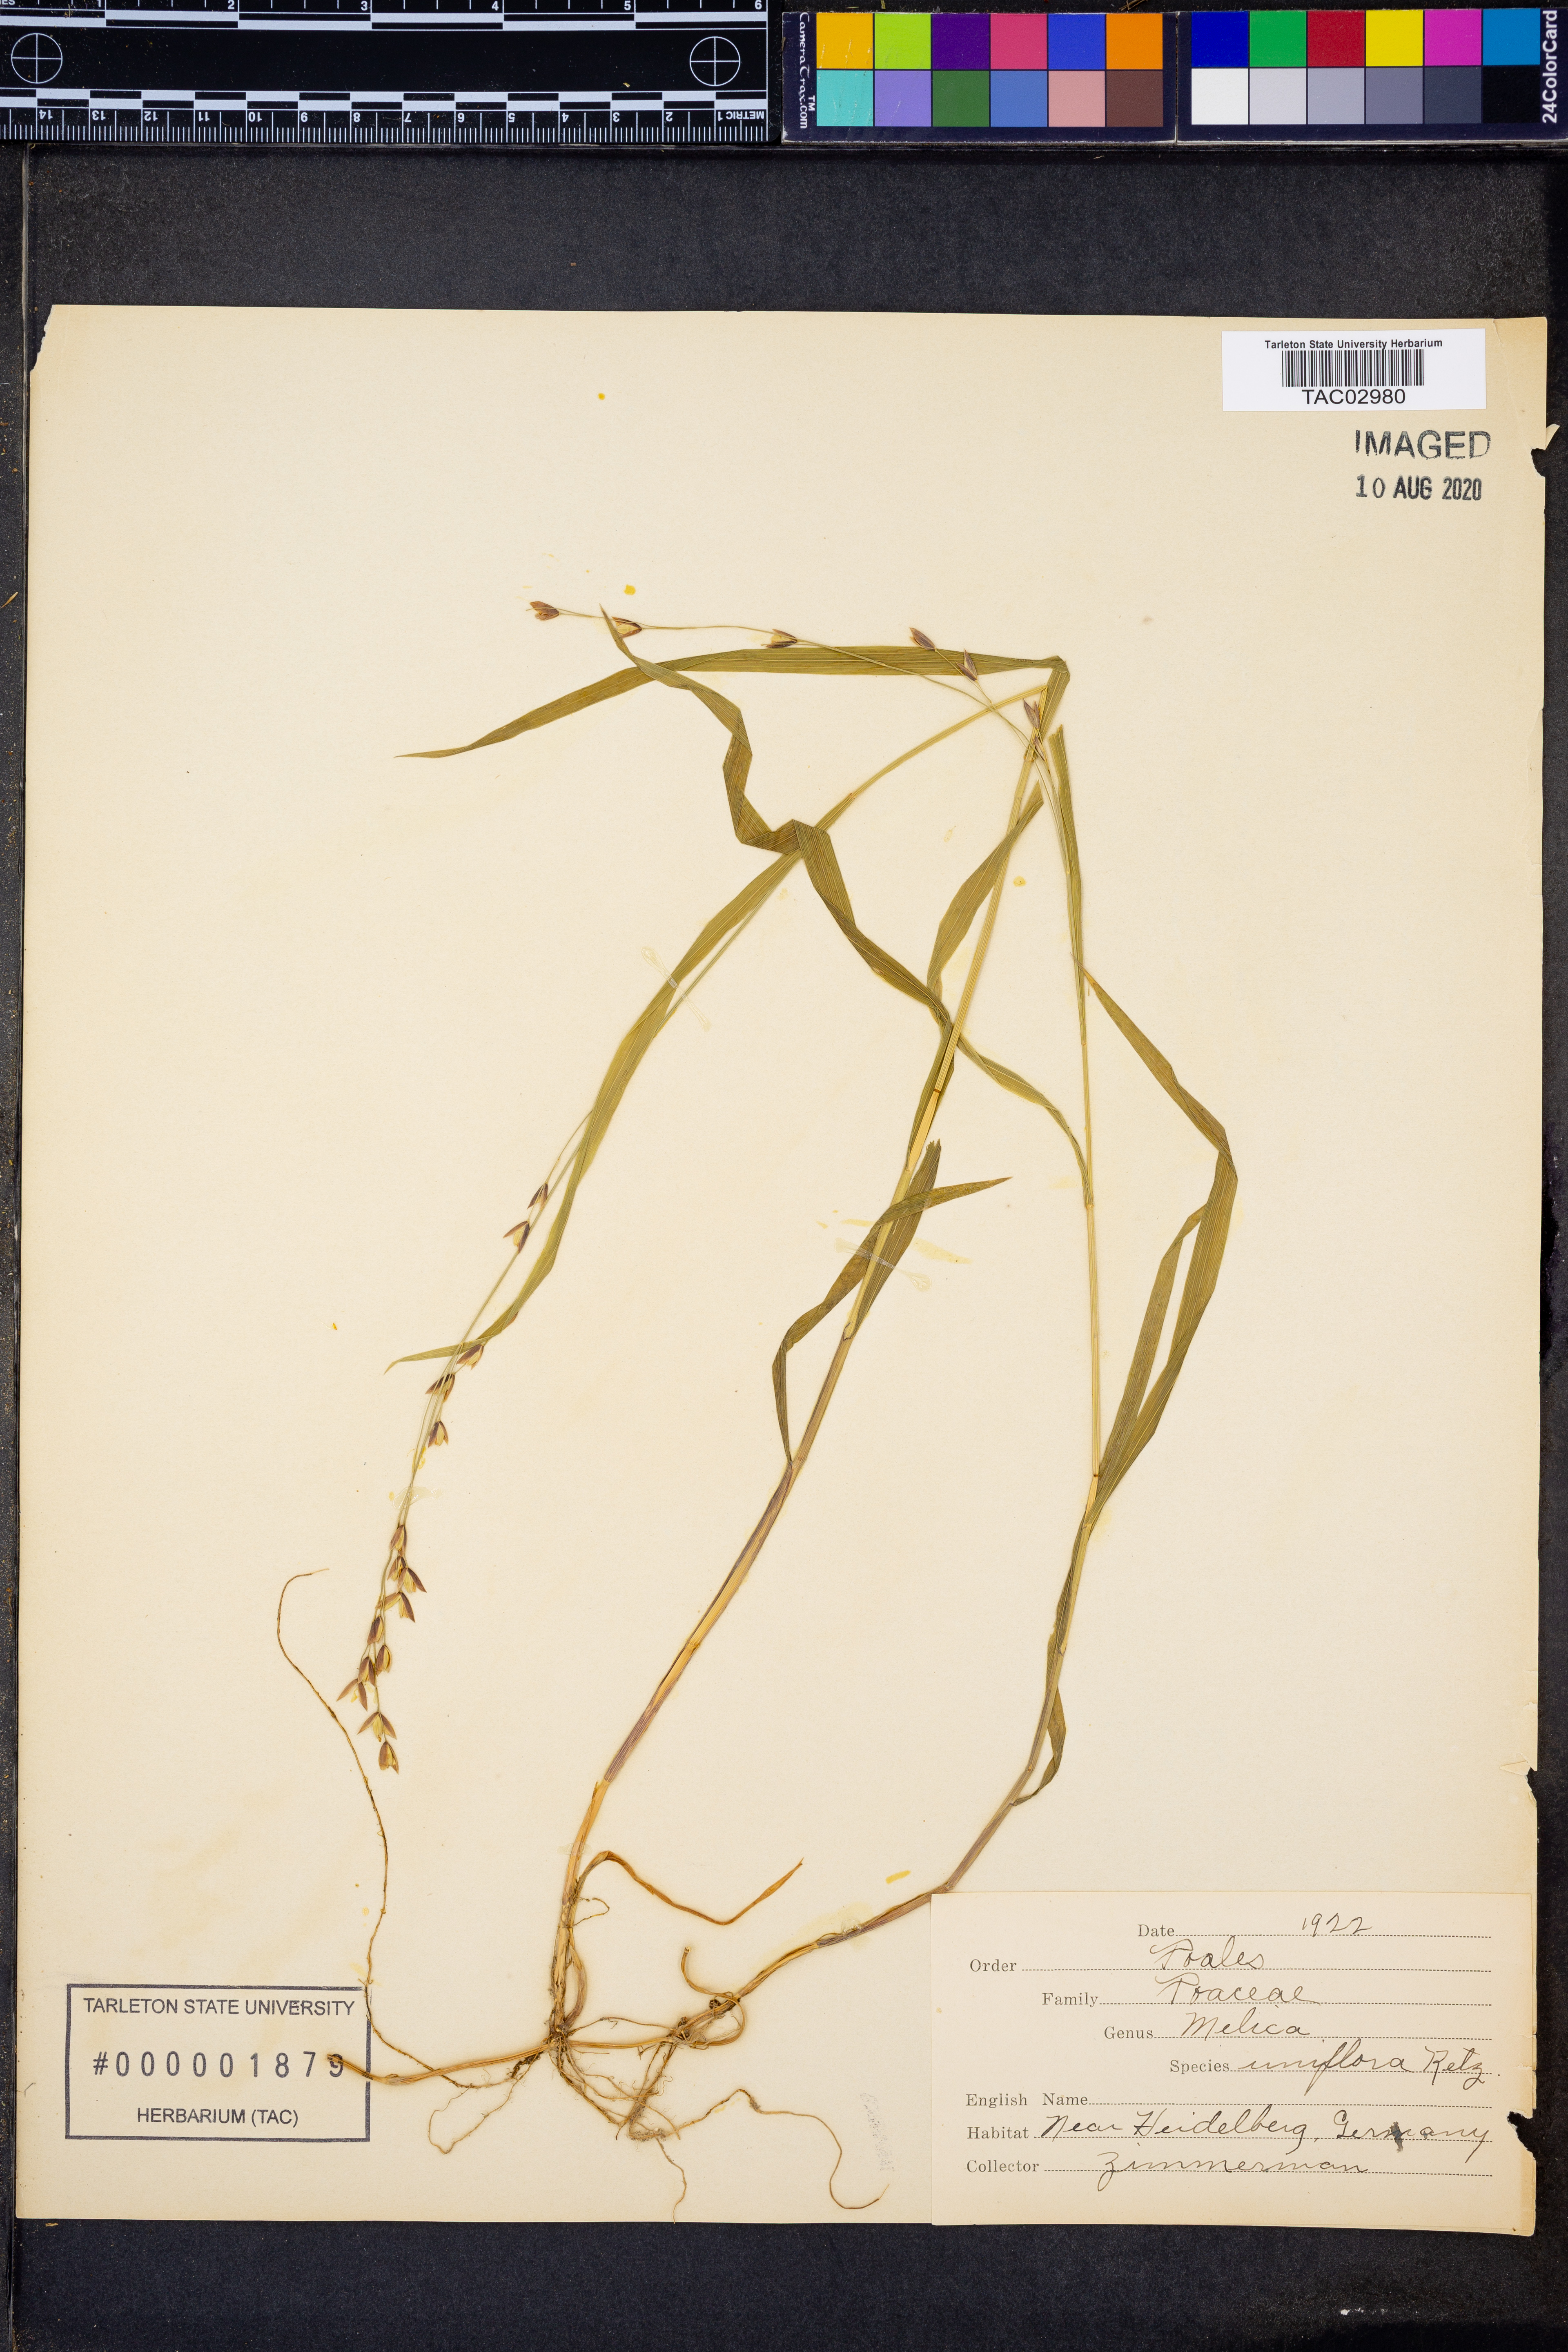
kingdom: Plantae
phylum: Tracheophyta
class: Liliopsida
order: Poales
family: Poaceae
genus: Melica
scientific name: Melica uniflora
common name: Wood melick
